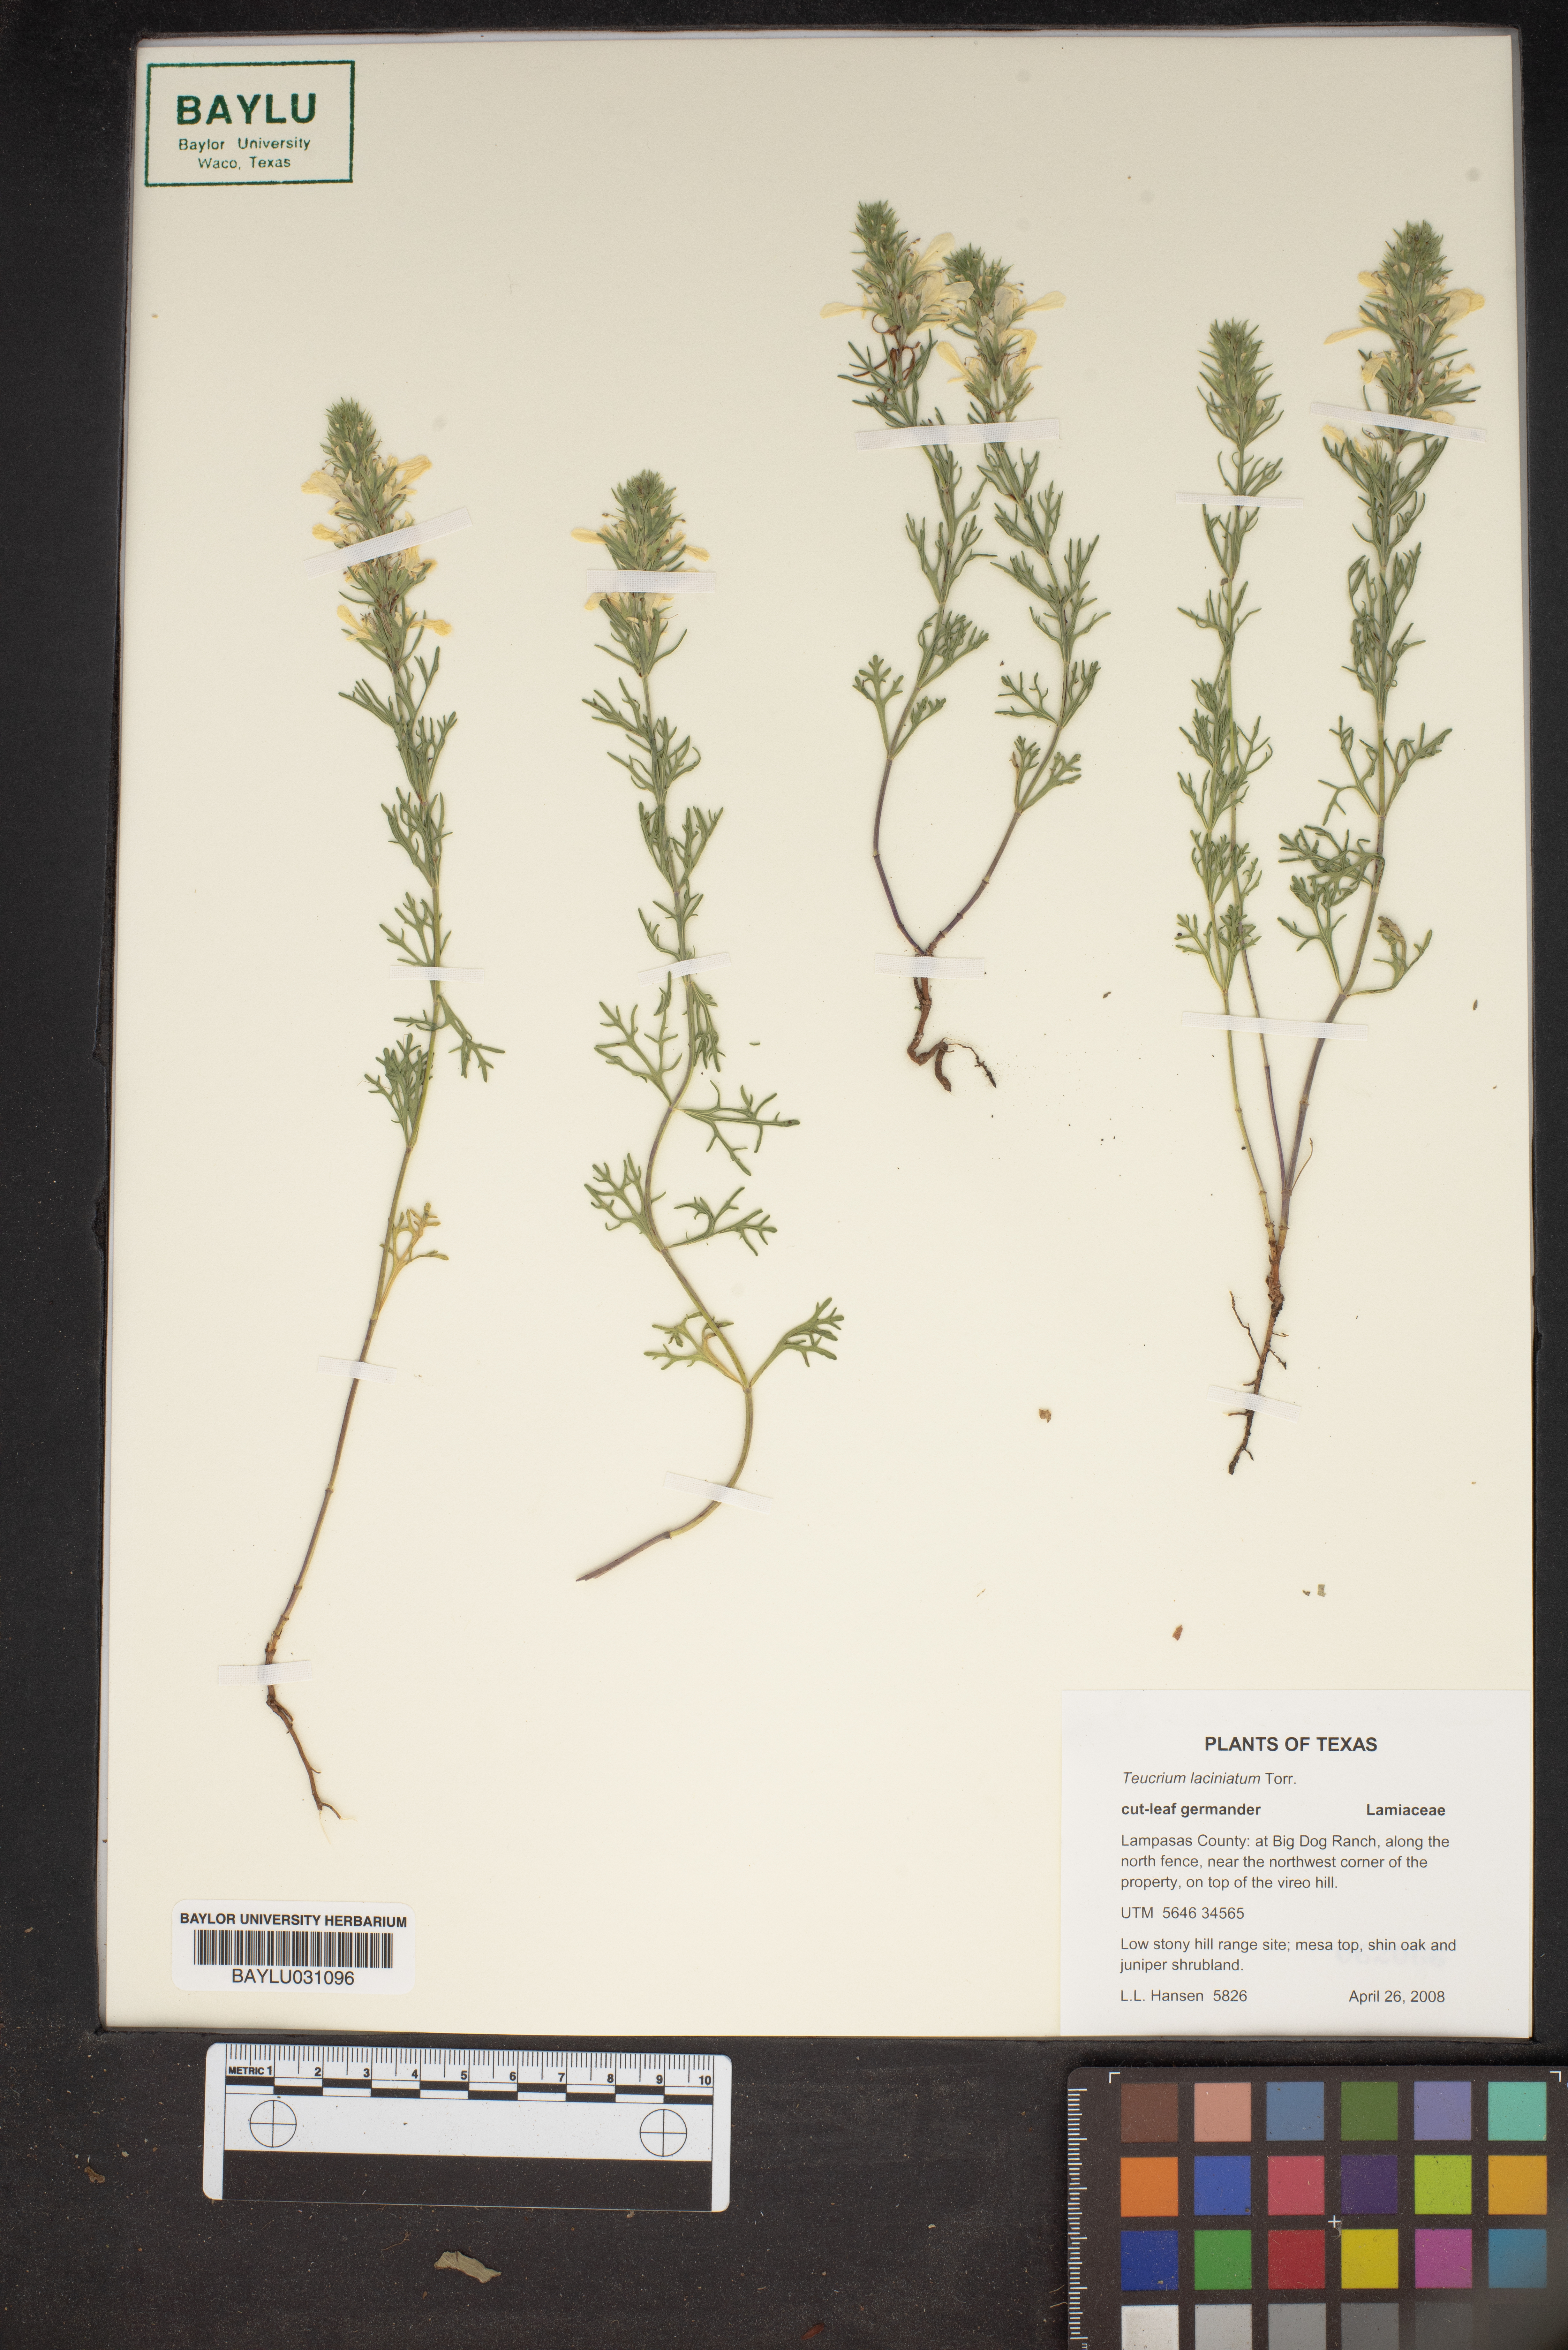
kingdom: Plantae
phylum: Tracheophyta
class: Magnoliopsida
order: Lamiales
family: Lamiaceae
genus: Teucrium
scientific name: Teucrium laciniatum
